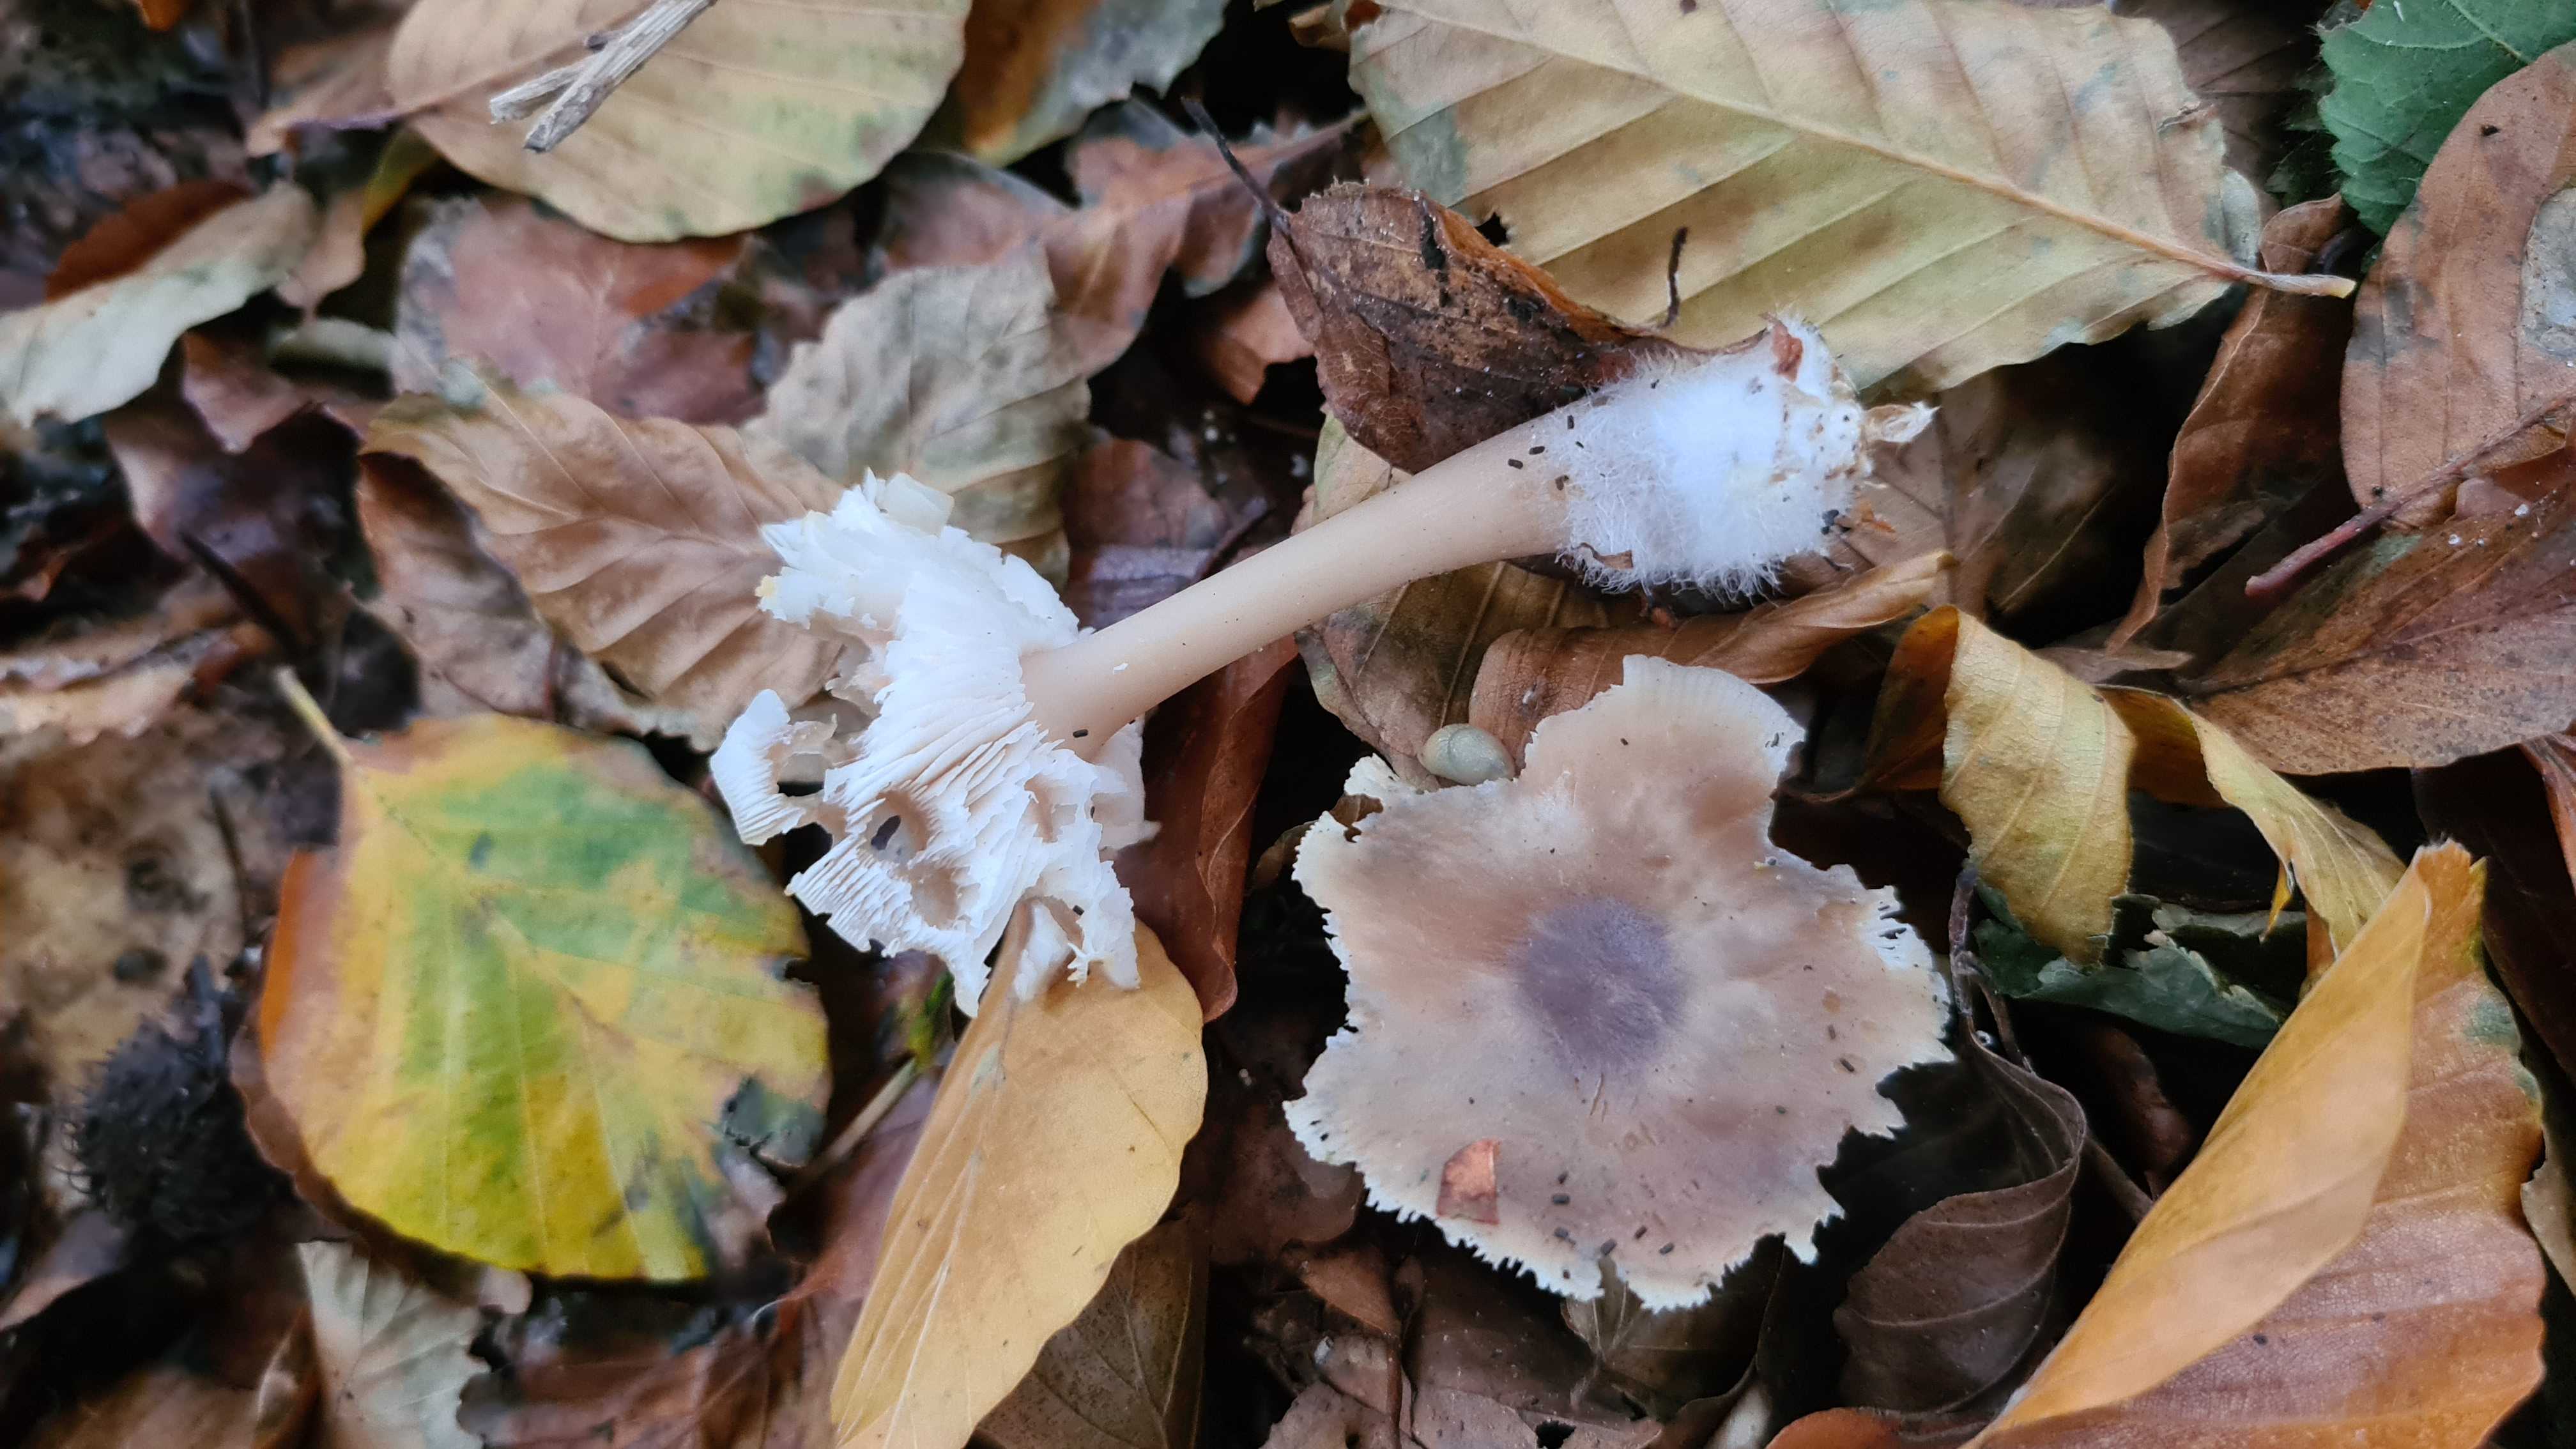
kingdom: Fungi
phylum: Basidiomycota
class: Agaricomycetes
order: Agaricales
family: Omphalotaceae
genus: Rhodocollybia
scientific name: Rhodocollybia asema
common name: horngrå fladhat
